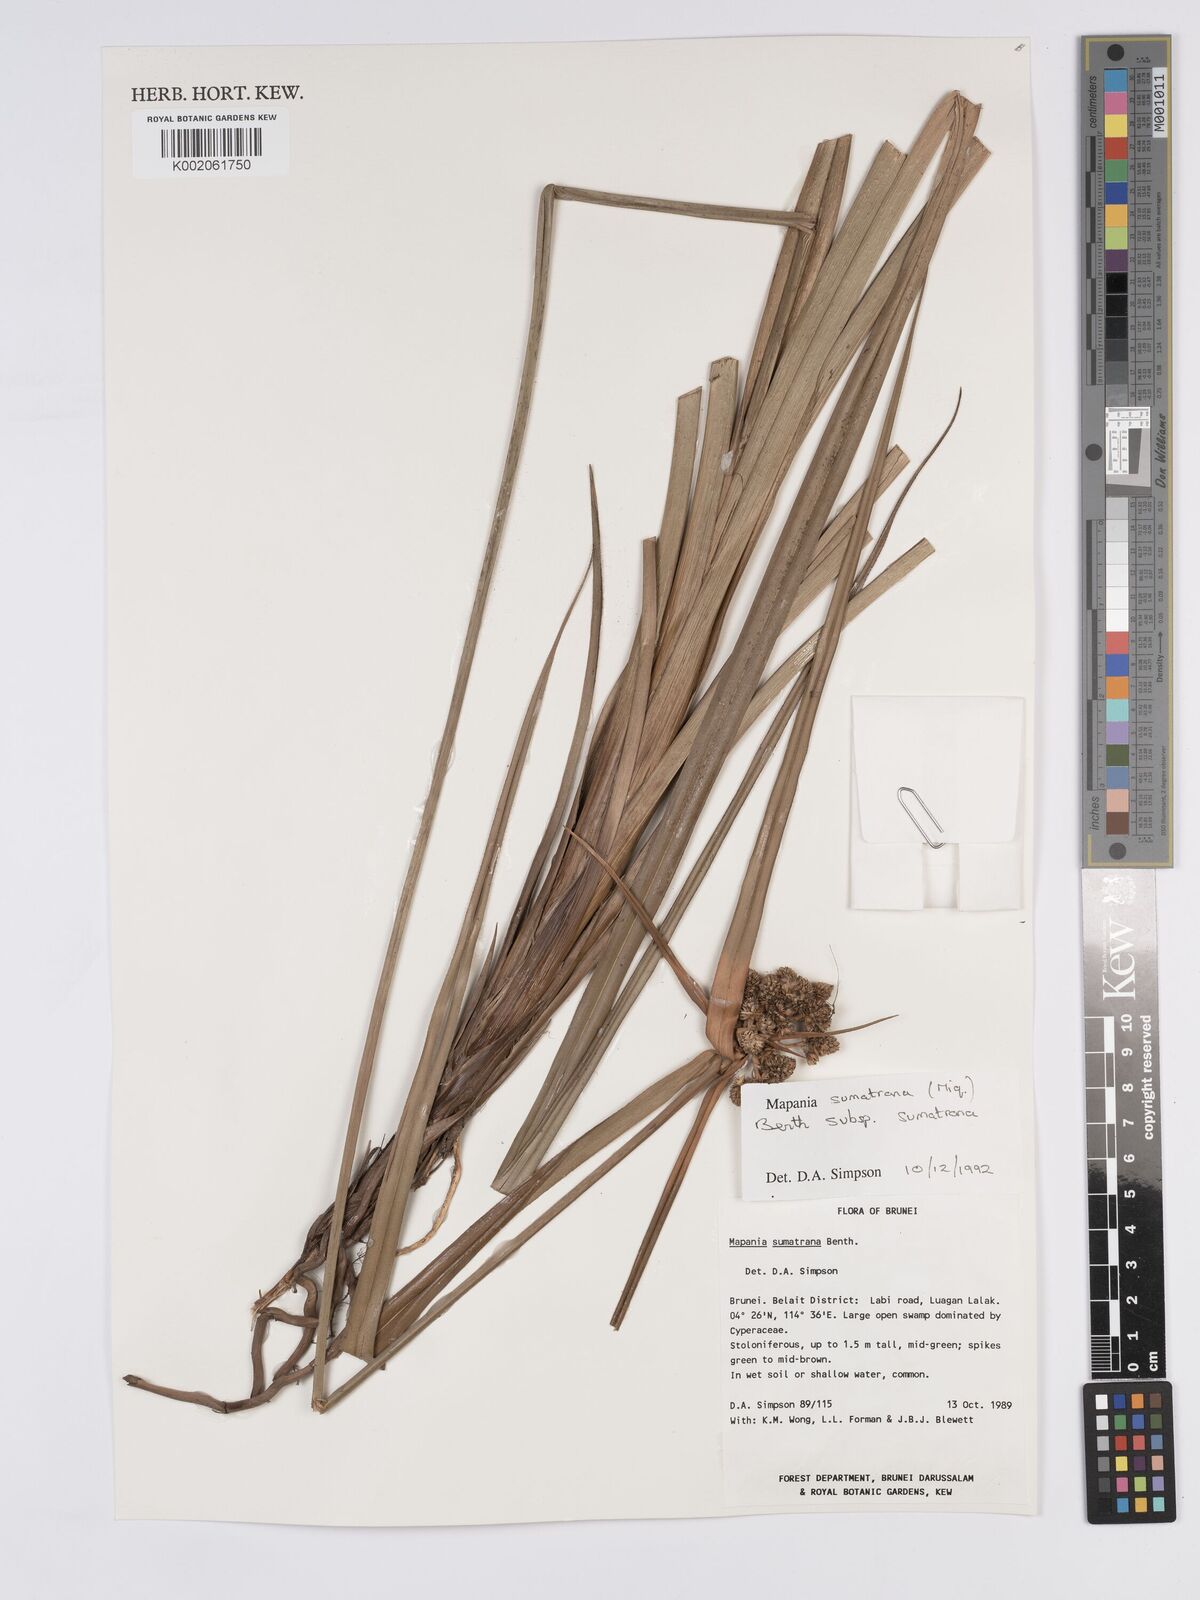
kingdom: Plantae
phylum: Tracheophyta
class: Liliopsida
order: Poales
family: Cyperaceae
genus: Mapania
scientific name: Mapania sumatrana
